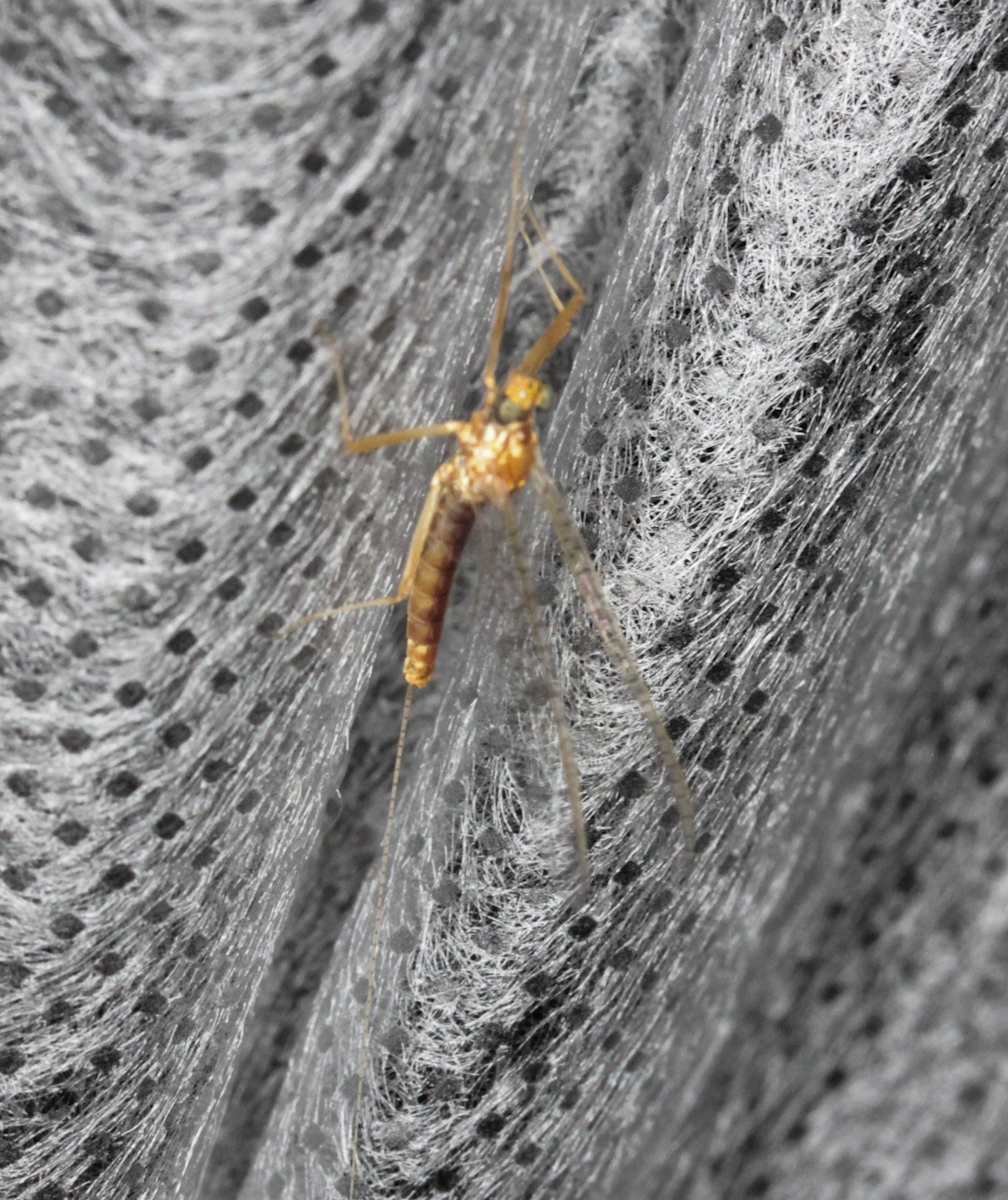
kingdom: Animalia
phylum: Arthropoda
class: Insecta
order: Ephemeroptera
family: Ephemeridae
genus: Ephemera
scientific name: Ephemera vulgata
